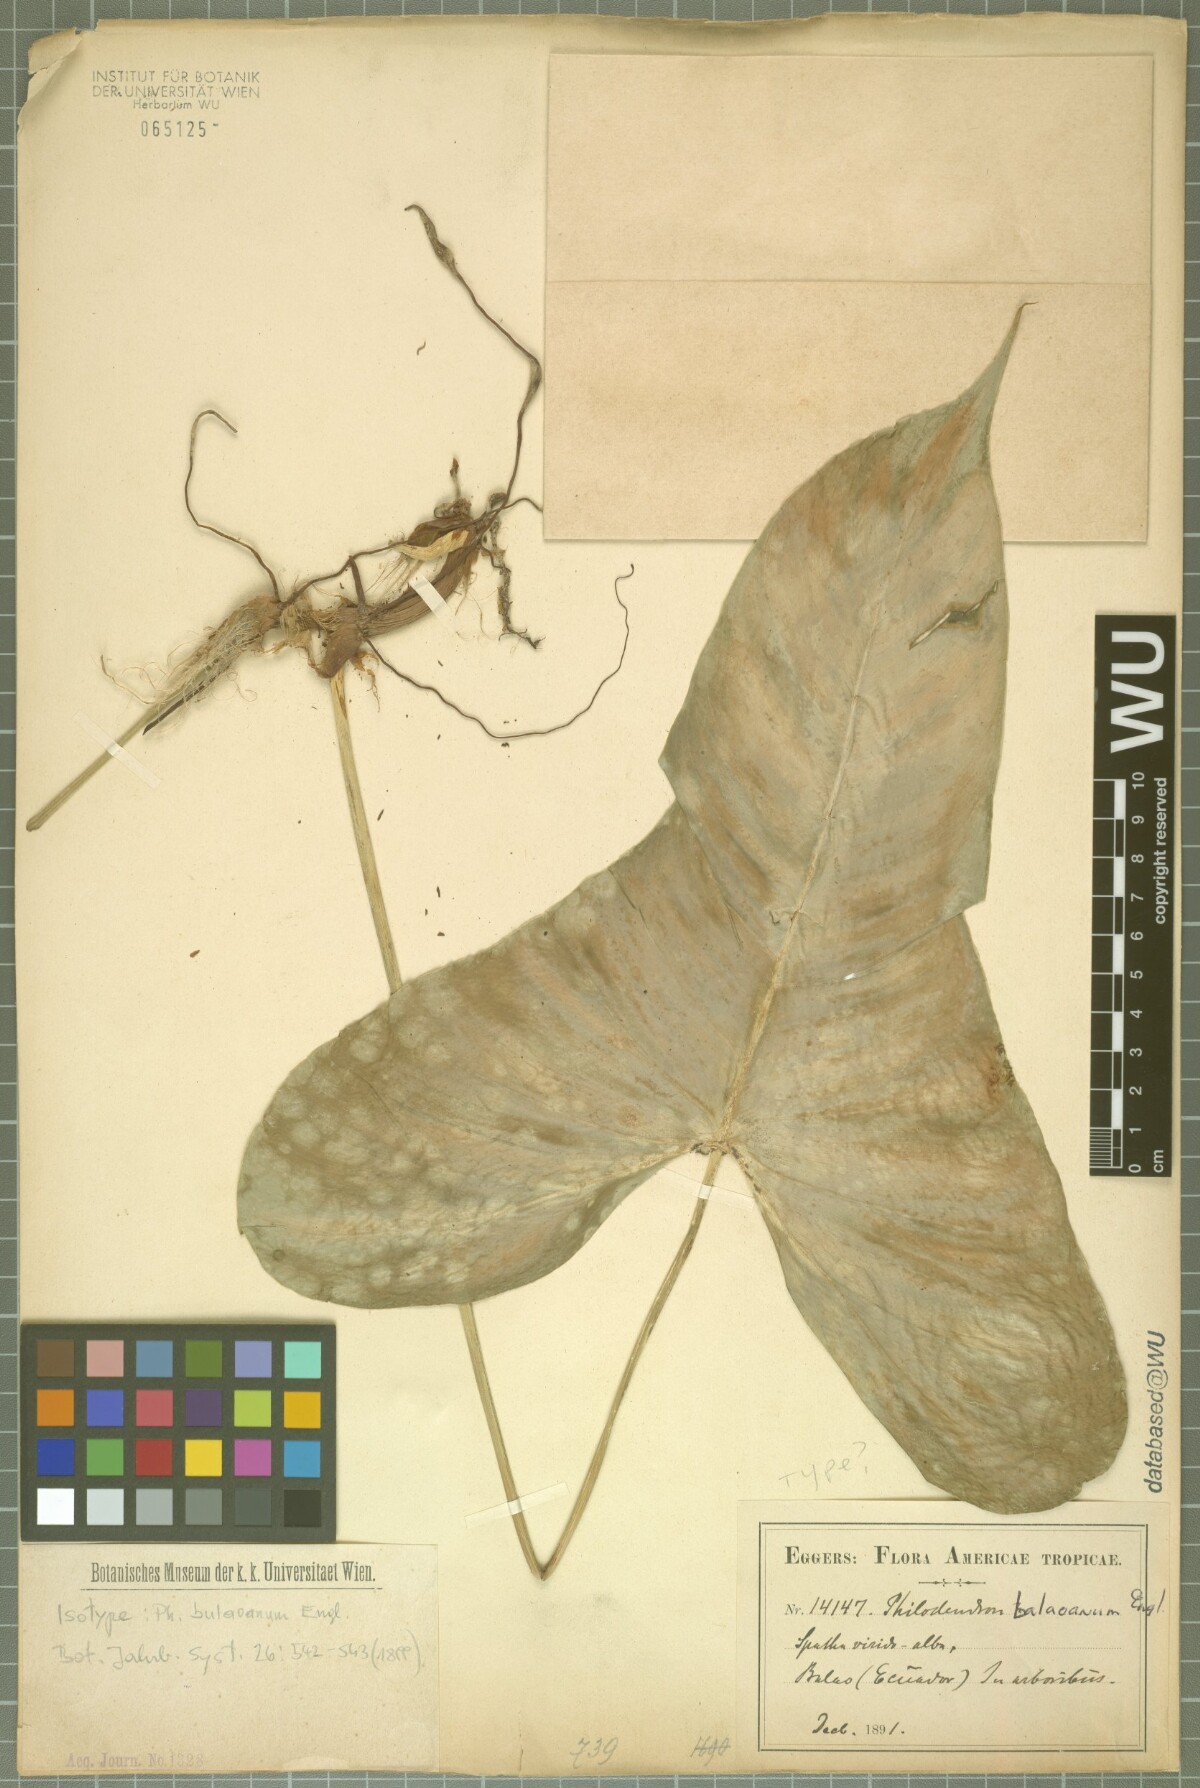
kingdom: Plantae
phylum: Tracheophyta
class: Liliopsida
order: Alismatales
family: Araceae
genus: Philodendron
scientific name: Philodendron bulaoanum
